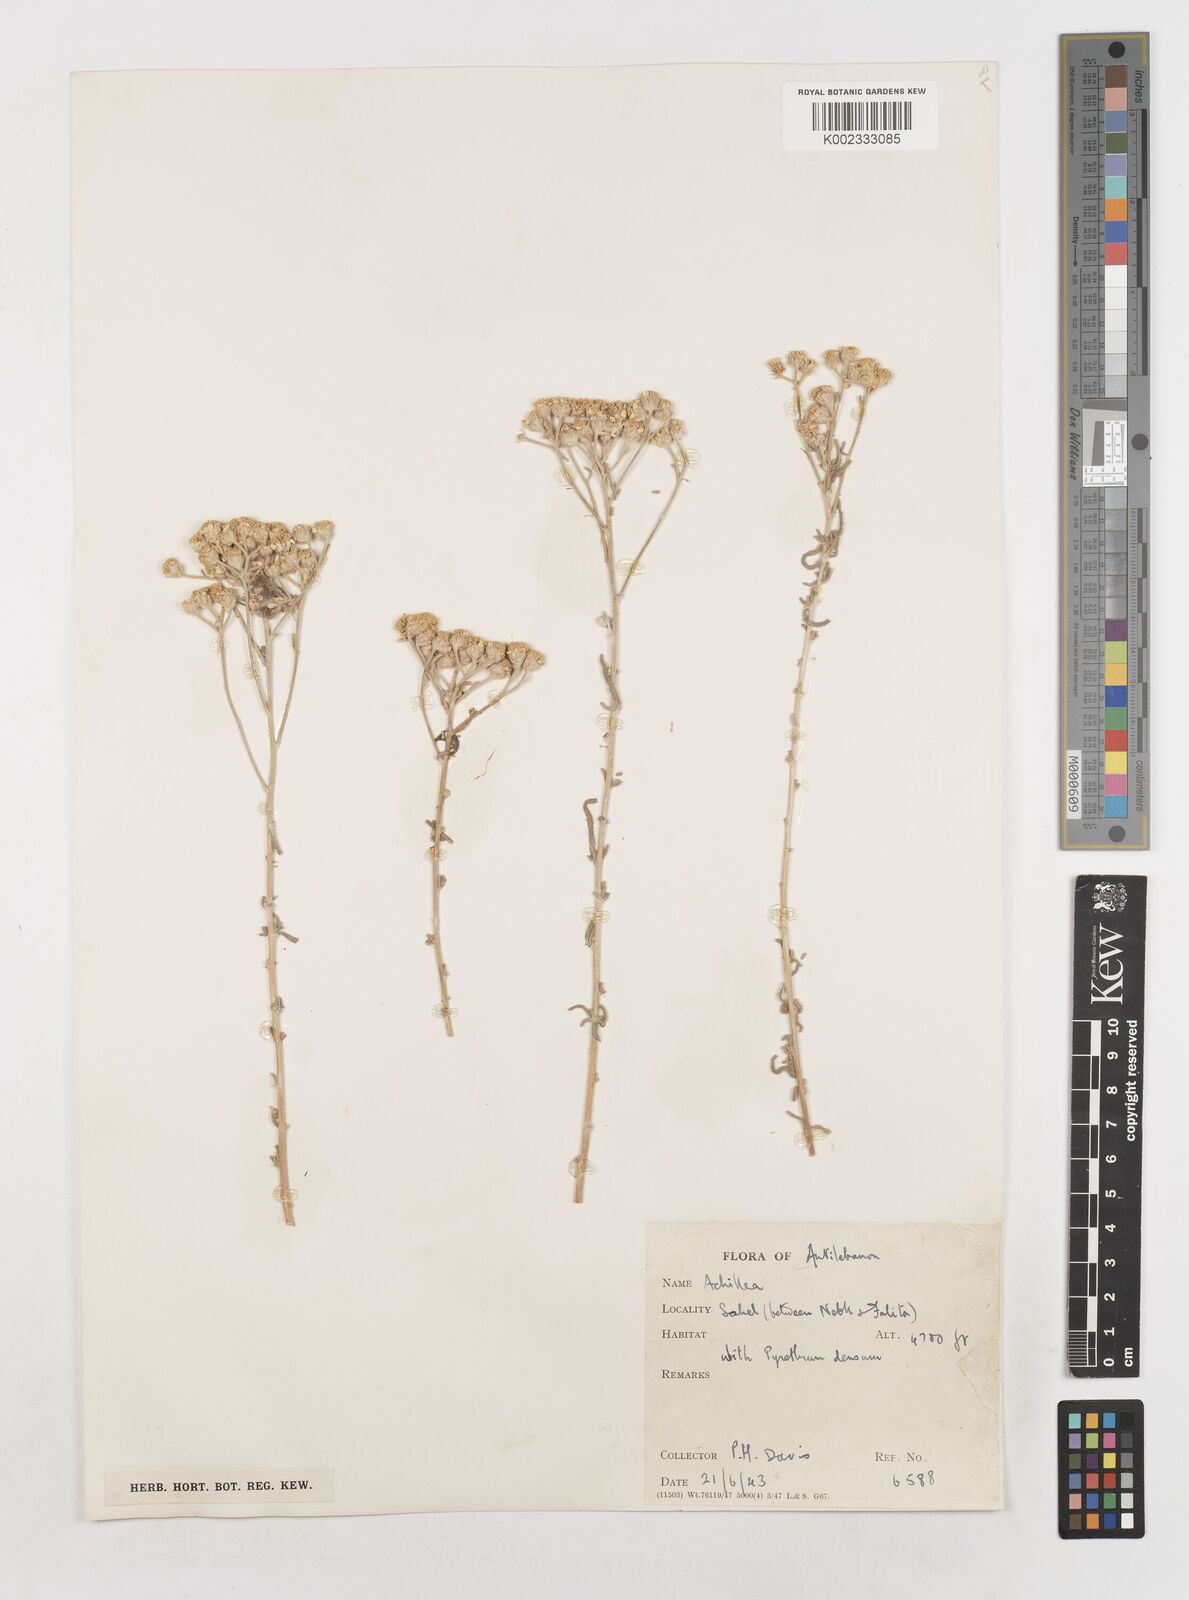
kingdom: Plantae
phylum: Tracheophyta
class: Magnoliopsida
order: Asterales
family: Asteraceae
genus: Achillea
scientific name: Achillea
